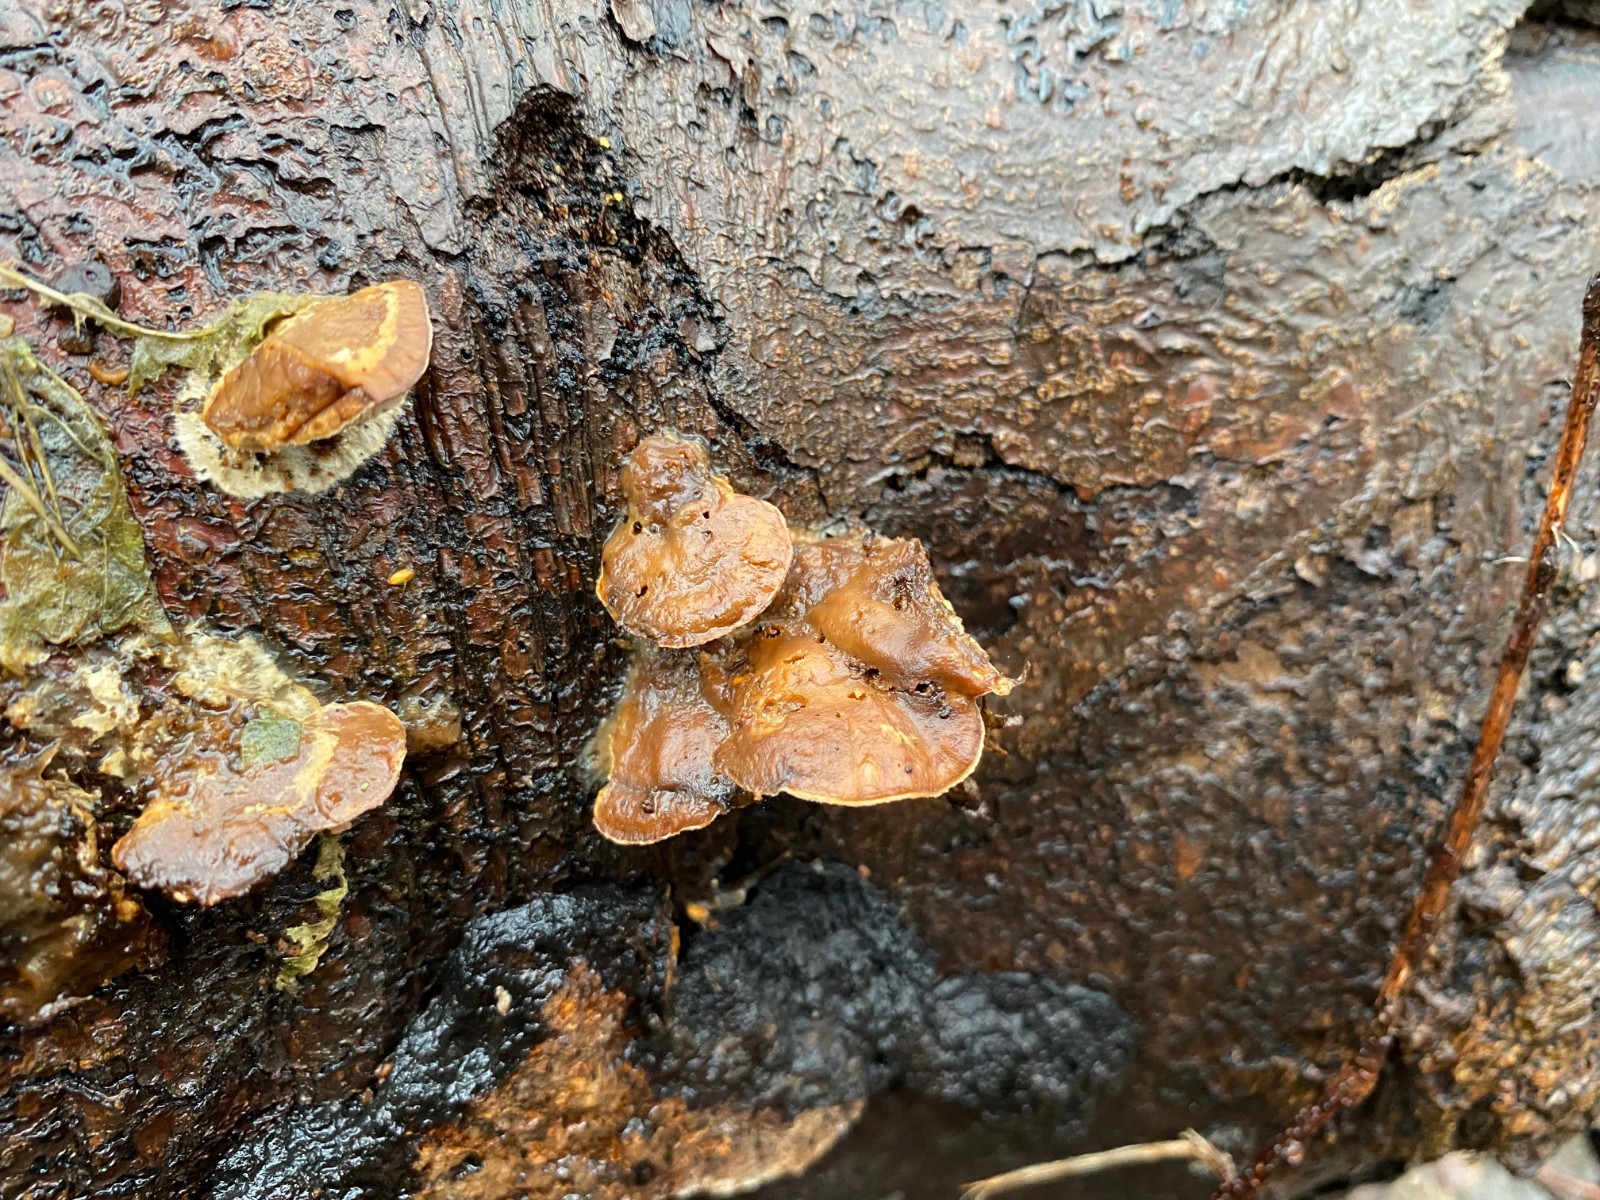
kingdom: Fungi
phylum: Basidiomycota
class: Agaricomycetes
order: Polyporales
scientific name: Polyporales
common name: poresvampordenen
